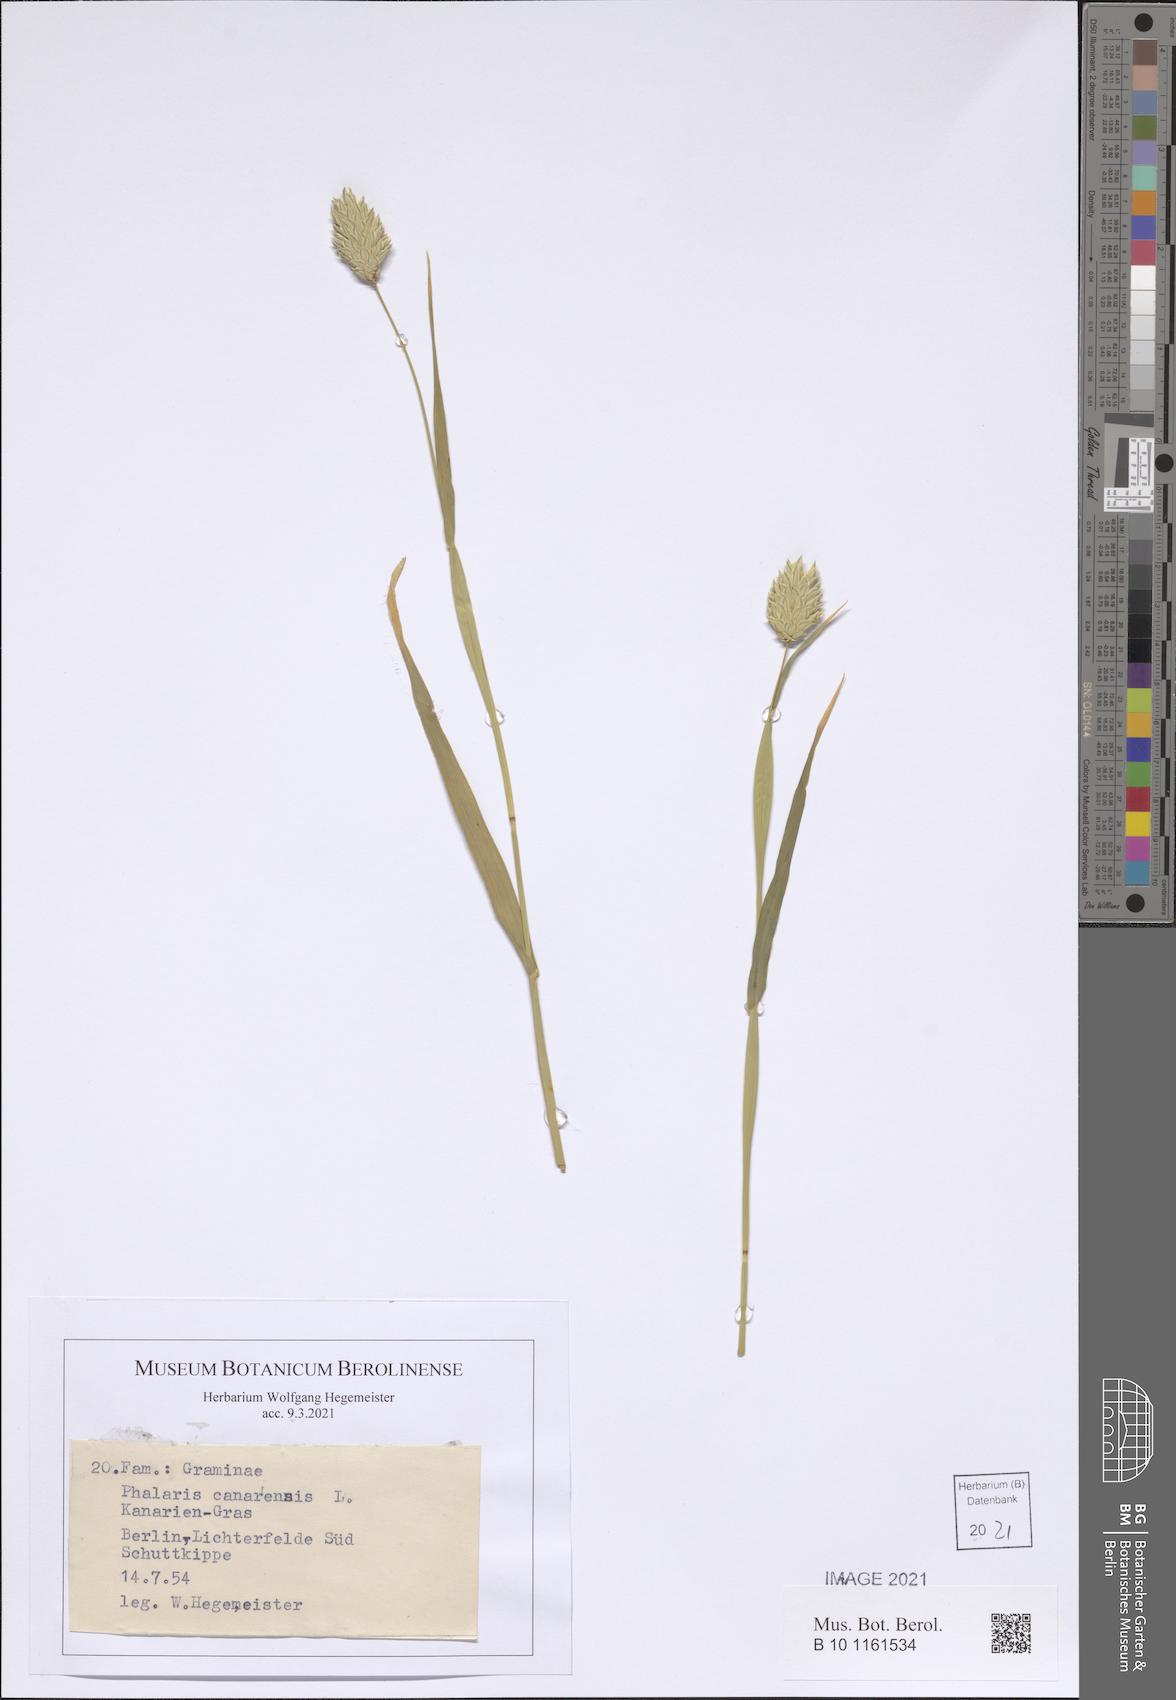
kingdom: Plantae
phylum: Tracheophyta
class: Liliopsida
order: Poales
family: Poaceae
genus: Phalaris
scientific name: Phalaris canariensis
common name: Annual canarygrass
